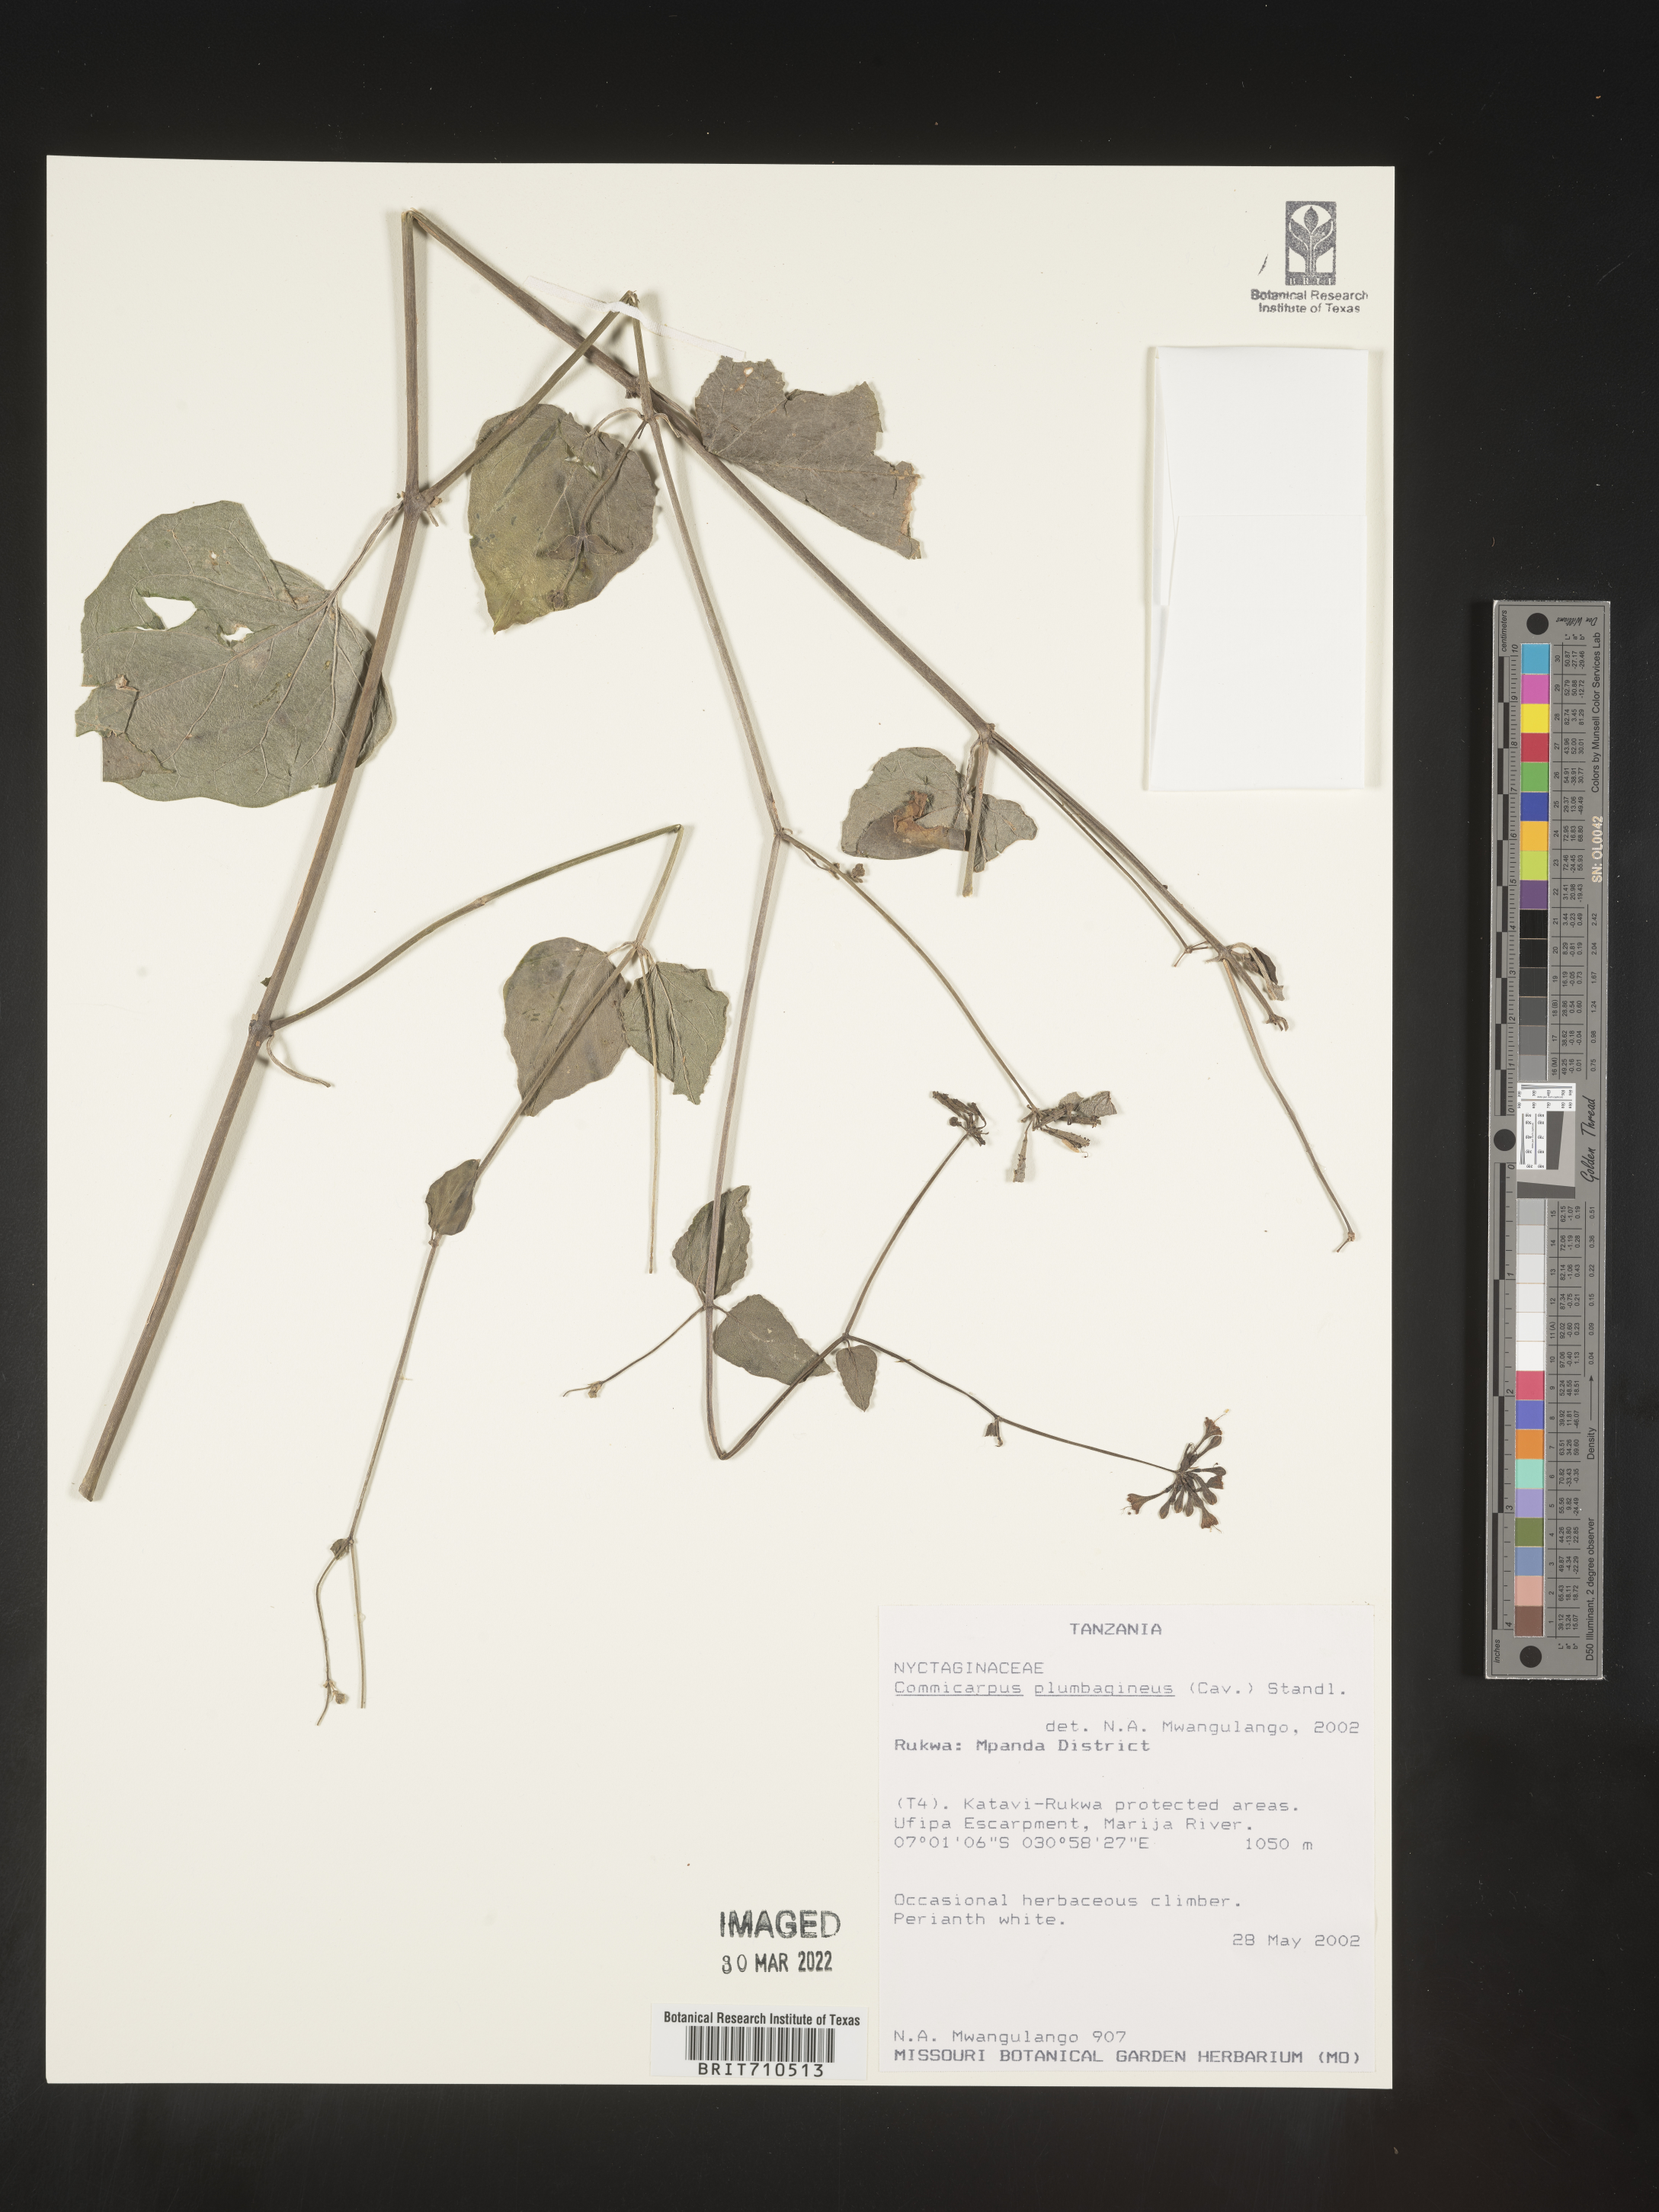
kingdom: Plantae
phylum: Tracheophyta
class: Magnoliopsida
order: Caryophyllales
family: Nyctaginaceae
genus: Commicarpus
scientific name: Commicarpus
